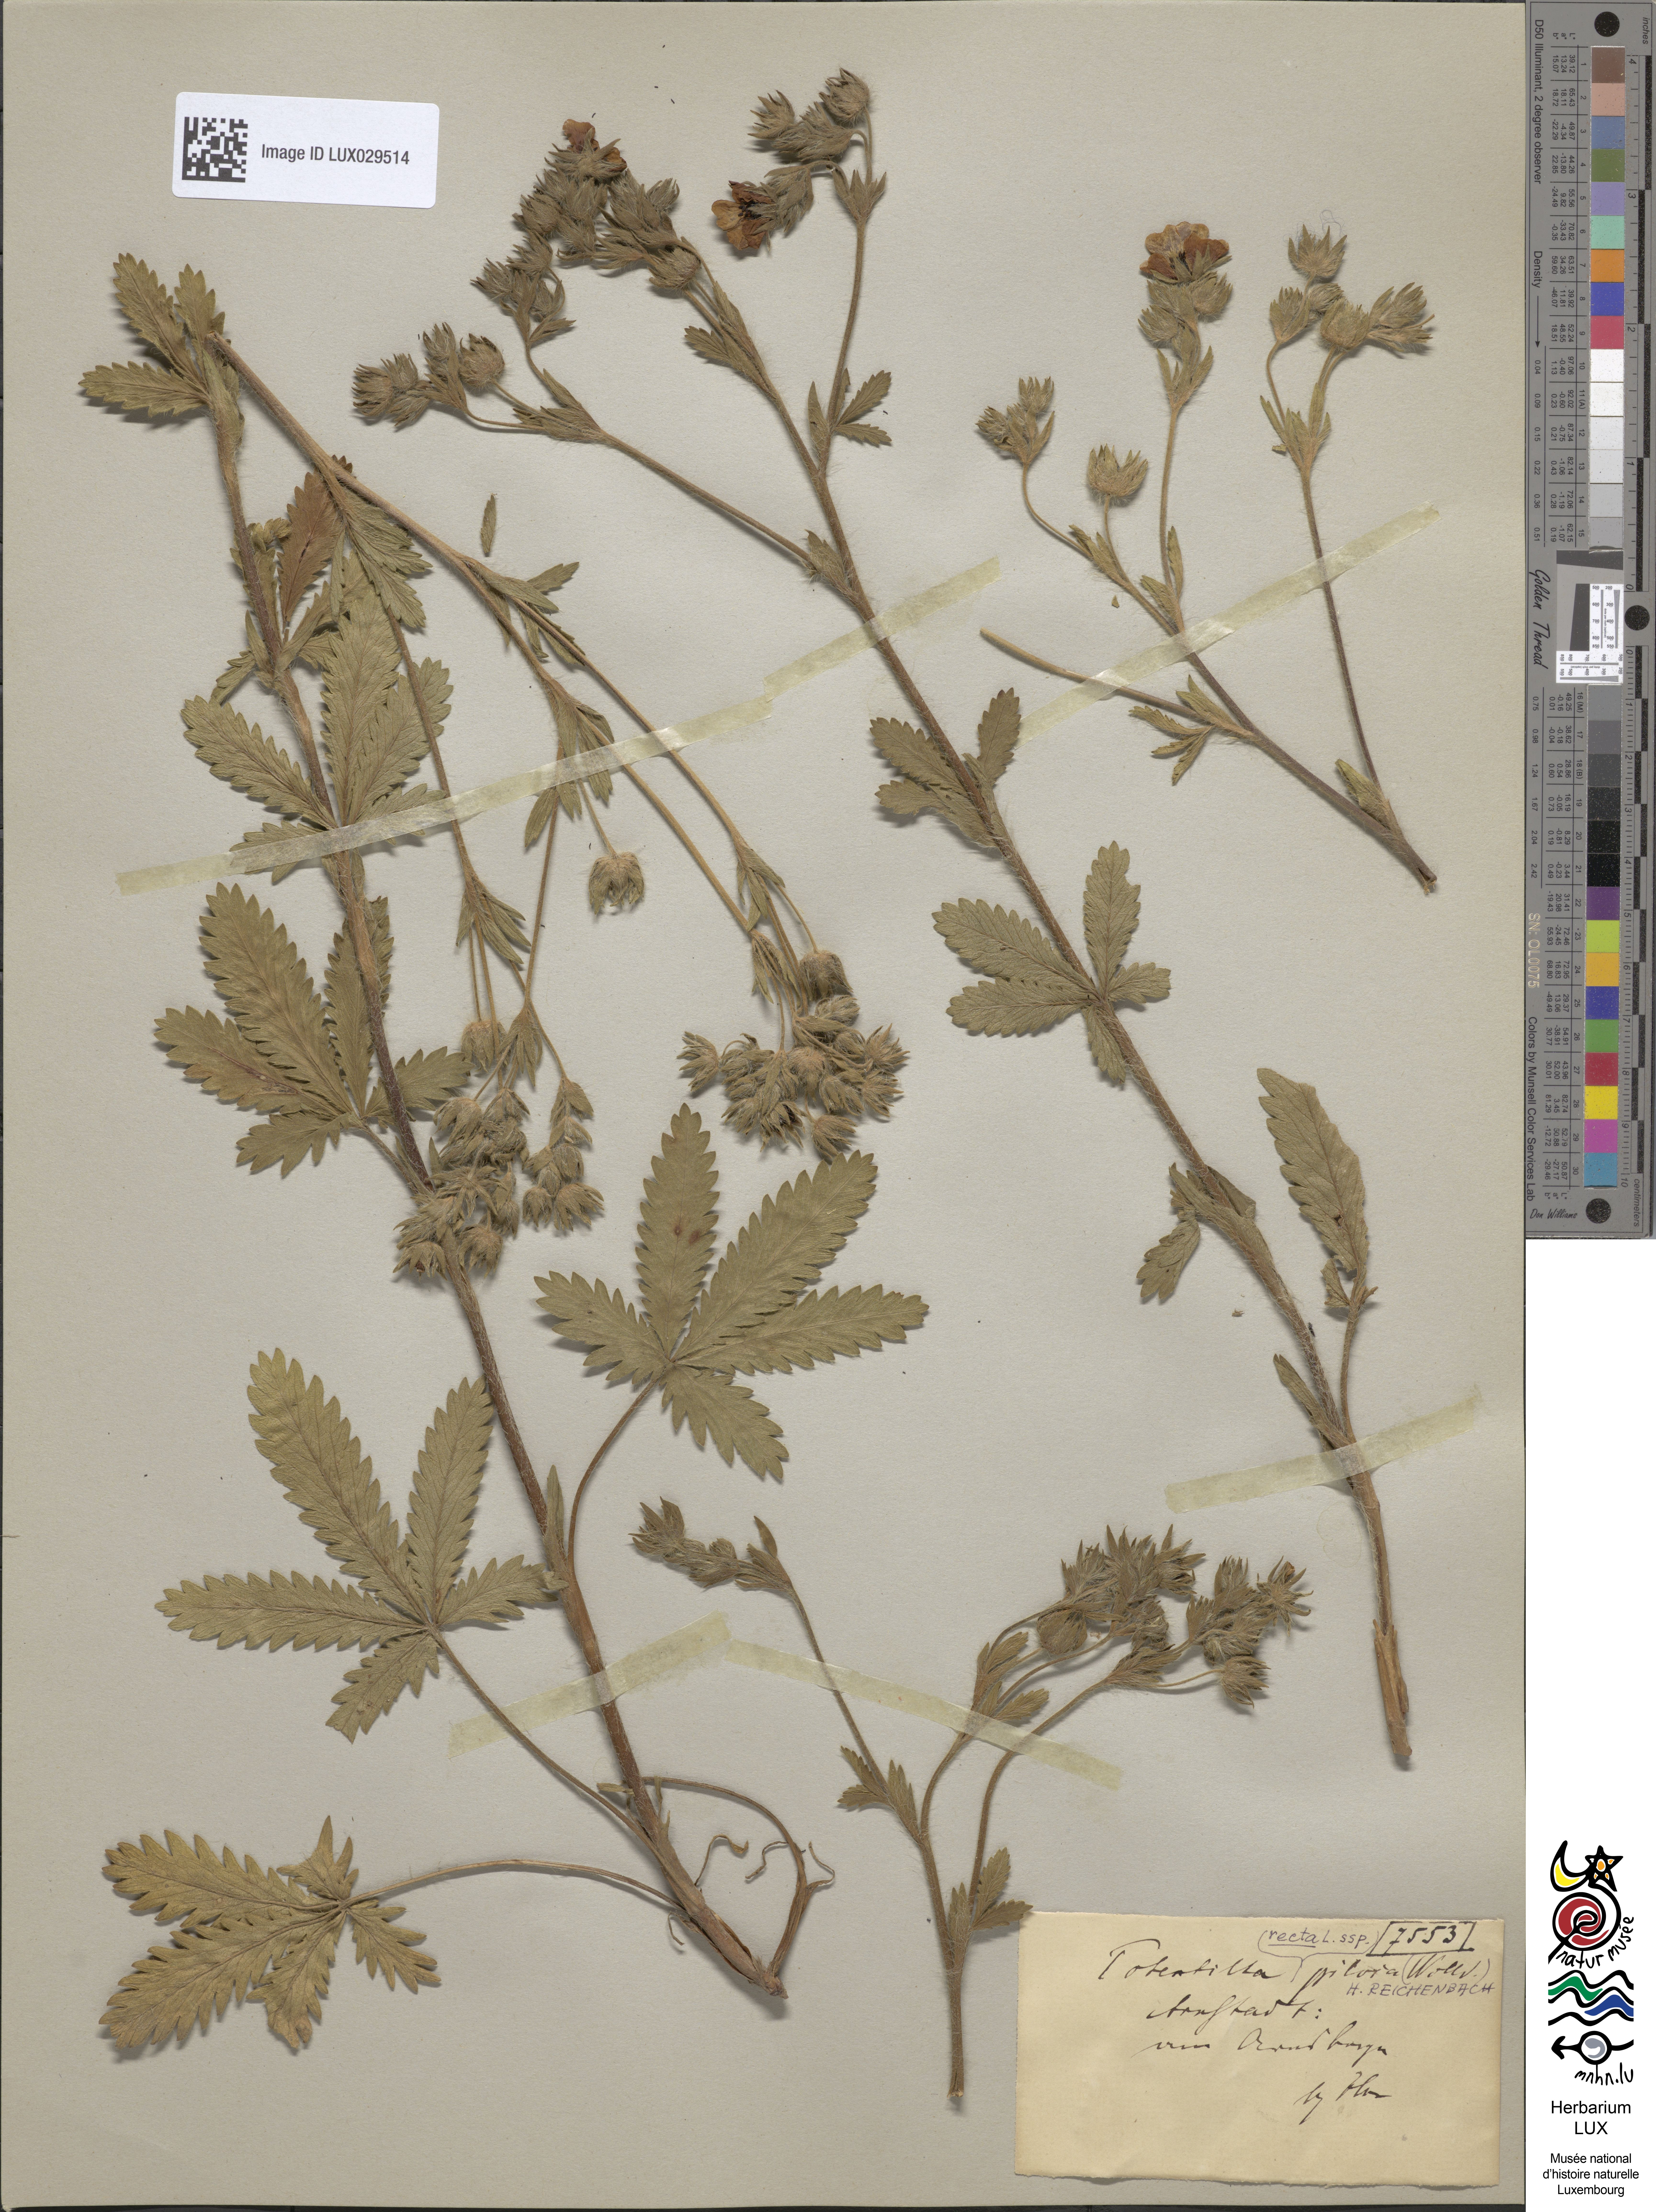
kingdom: Plantae
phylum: Tracheophyta
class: Magnoliopsida
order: Rosales
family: Rosaceae
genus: Potentilla
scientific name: Potentilla recta
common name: Sulphur cinquefoil
